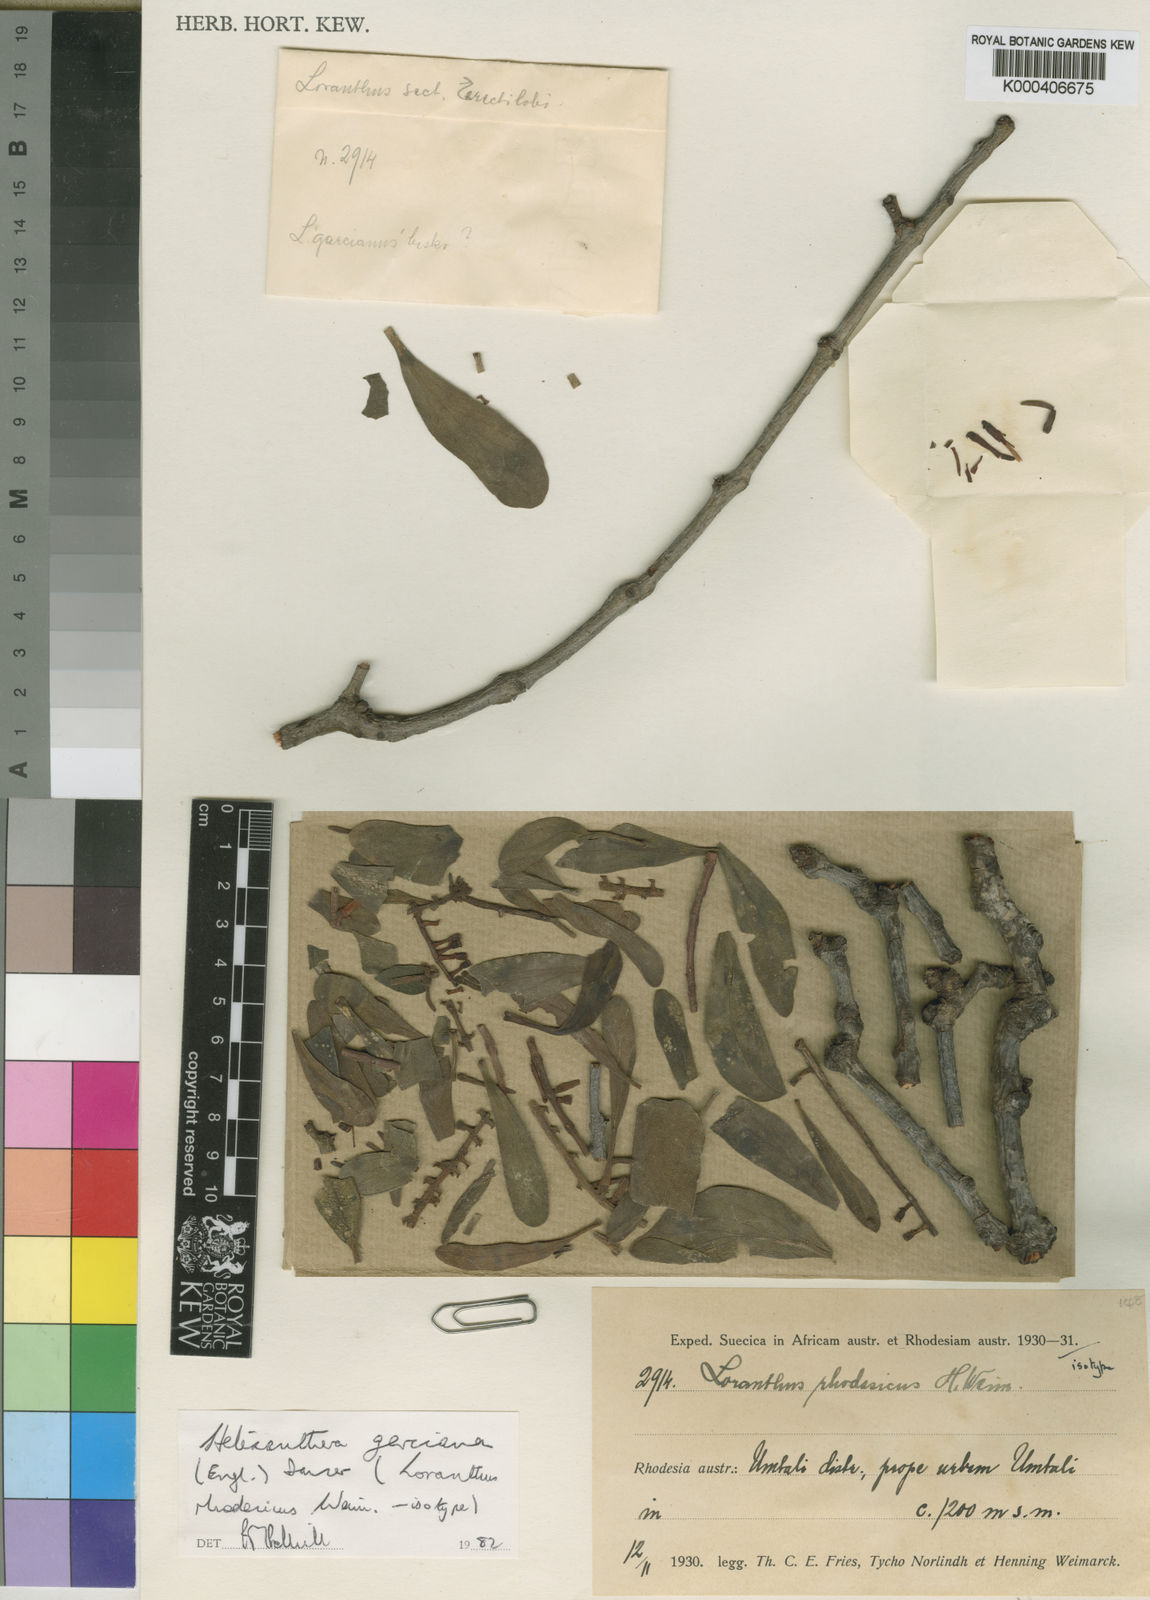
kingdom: Plantae
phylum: Tracheophyta
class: Magnoliopsida
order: Santalales
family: Loranthaceae
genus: Helixanthera
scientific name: Helixanthera garciana
